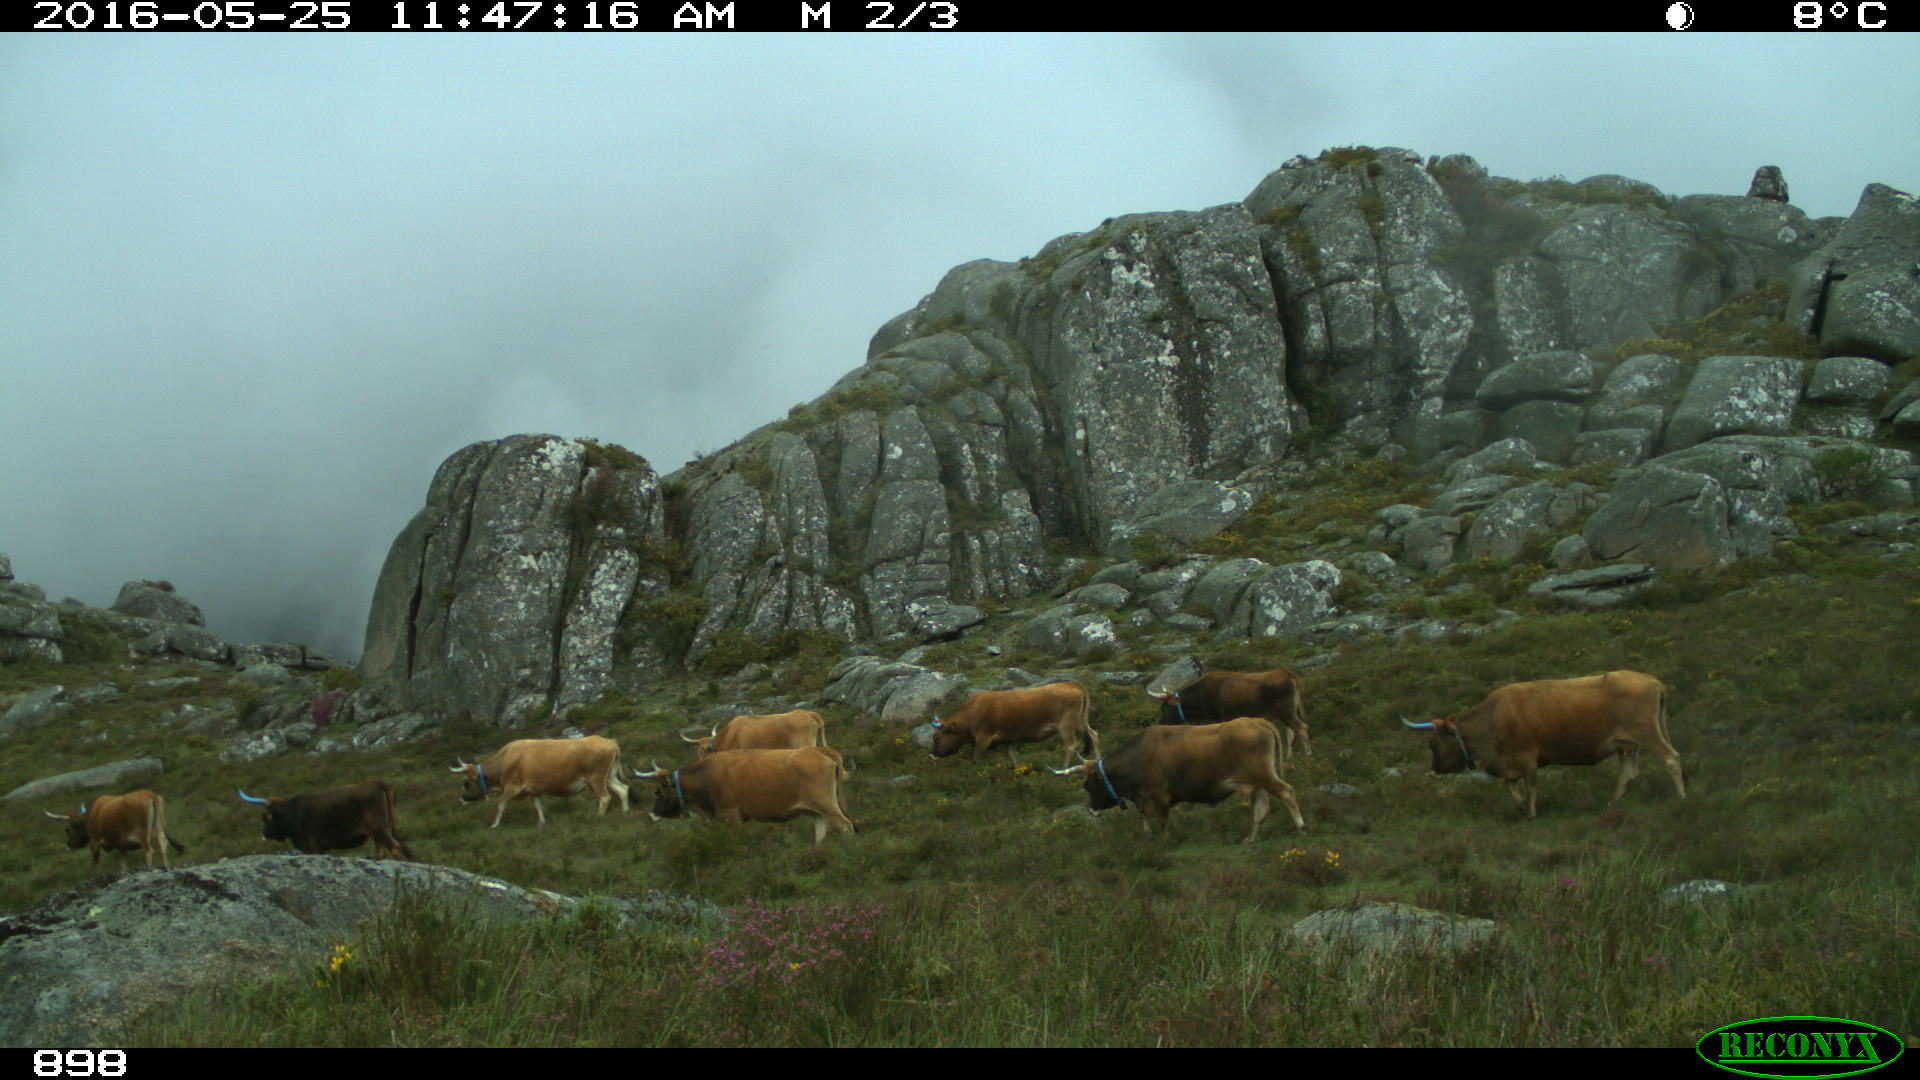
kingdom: Animalia
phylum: Chordata
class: Mammalia
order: Artiodactyla
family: Bovidae
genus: Bos
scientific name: Bos taurus
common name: Domesticated cattle
